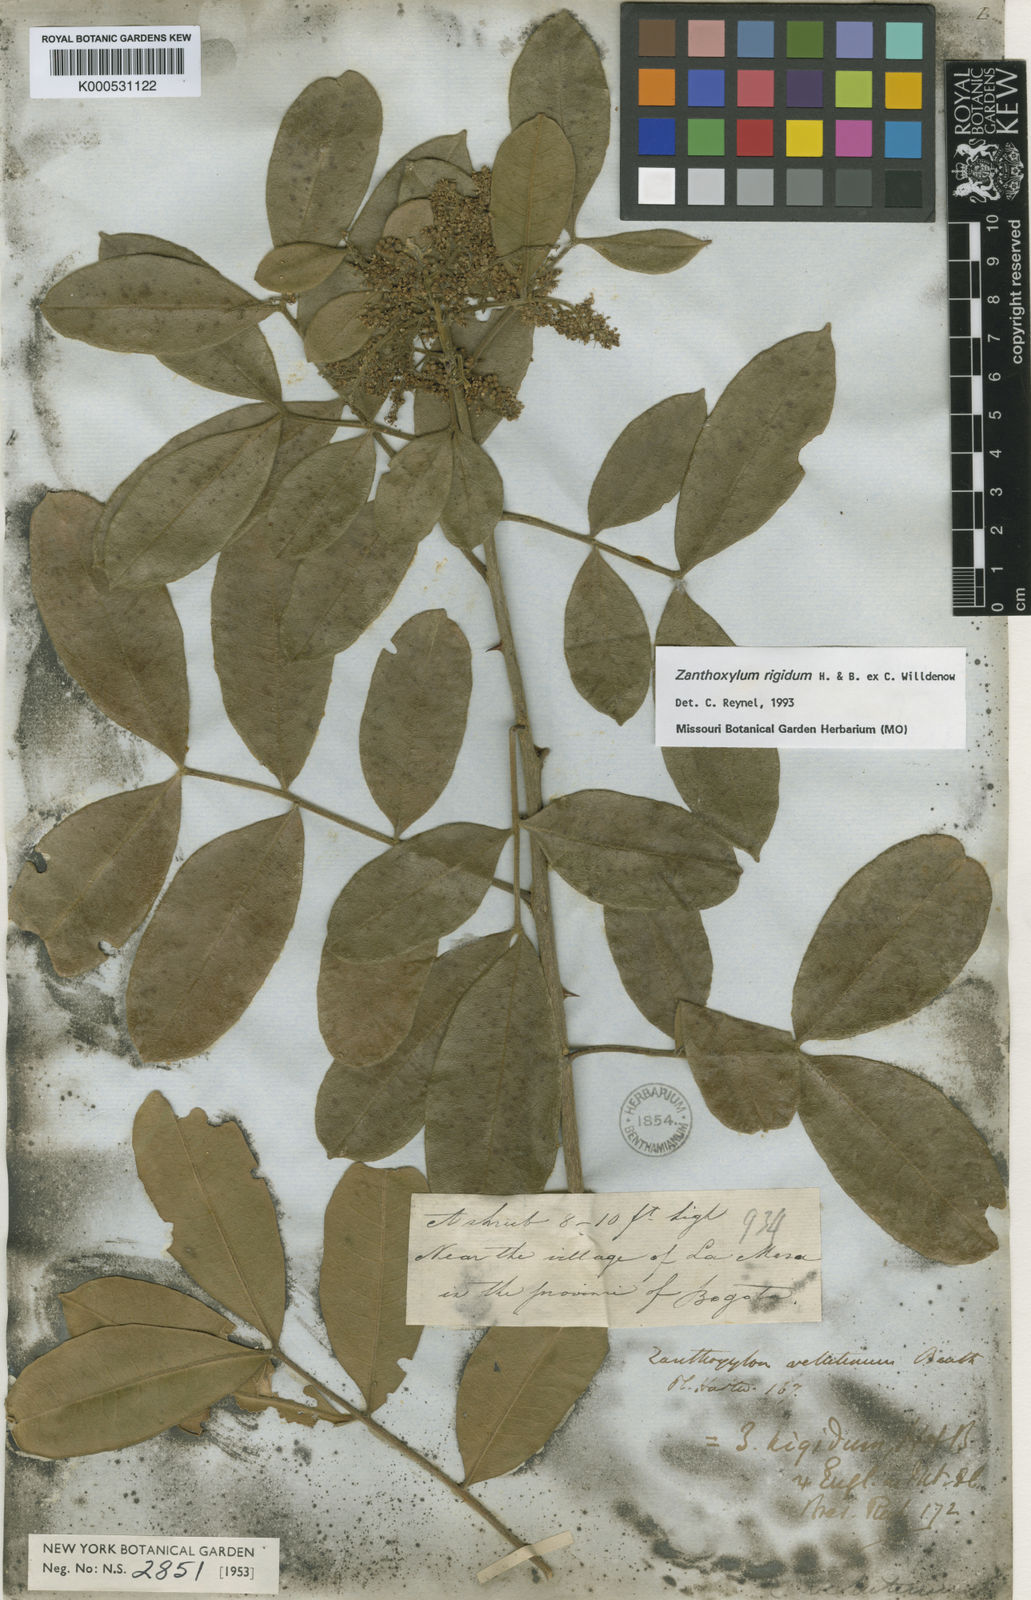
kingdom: Plantae
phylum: Tracheophyta
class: Magnoliopsida
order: Sapindales
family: Rutaceae
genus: Zanthoxylum
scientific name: Zanthoxylum rigidum
